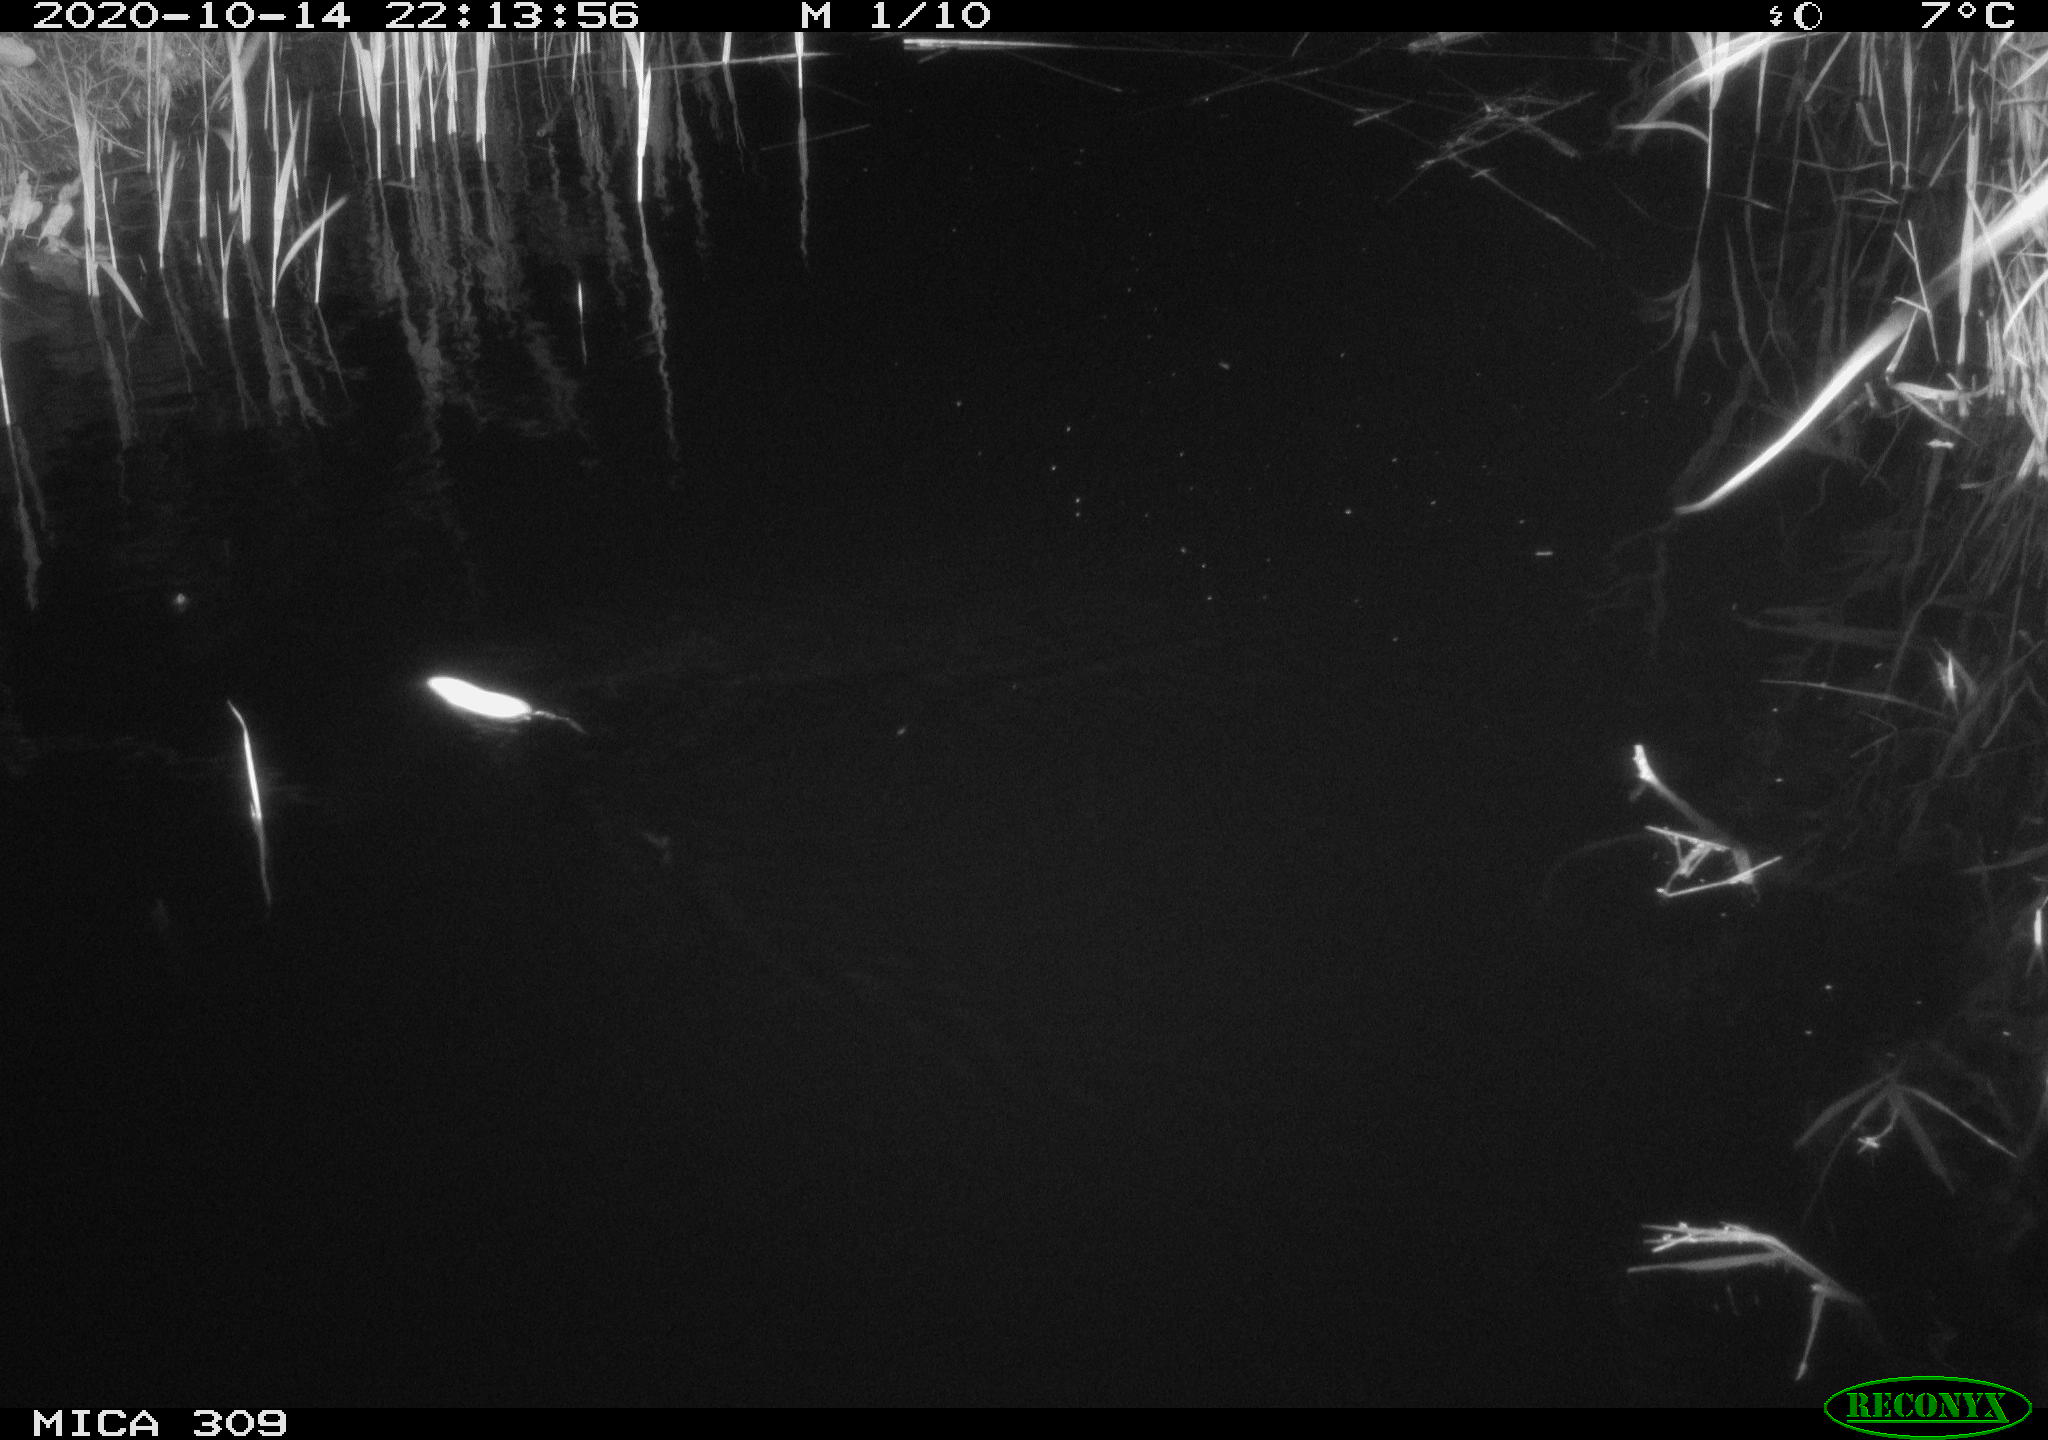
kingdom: Animalia
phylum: Chordata
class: Mammalia
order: Rodentia
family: Muridae
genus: Rattus
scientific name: Rattus norvegicus
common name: Brown rat
